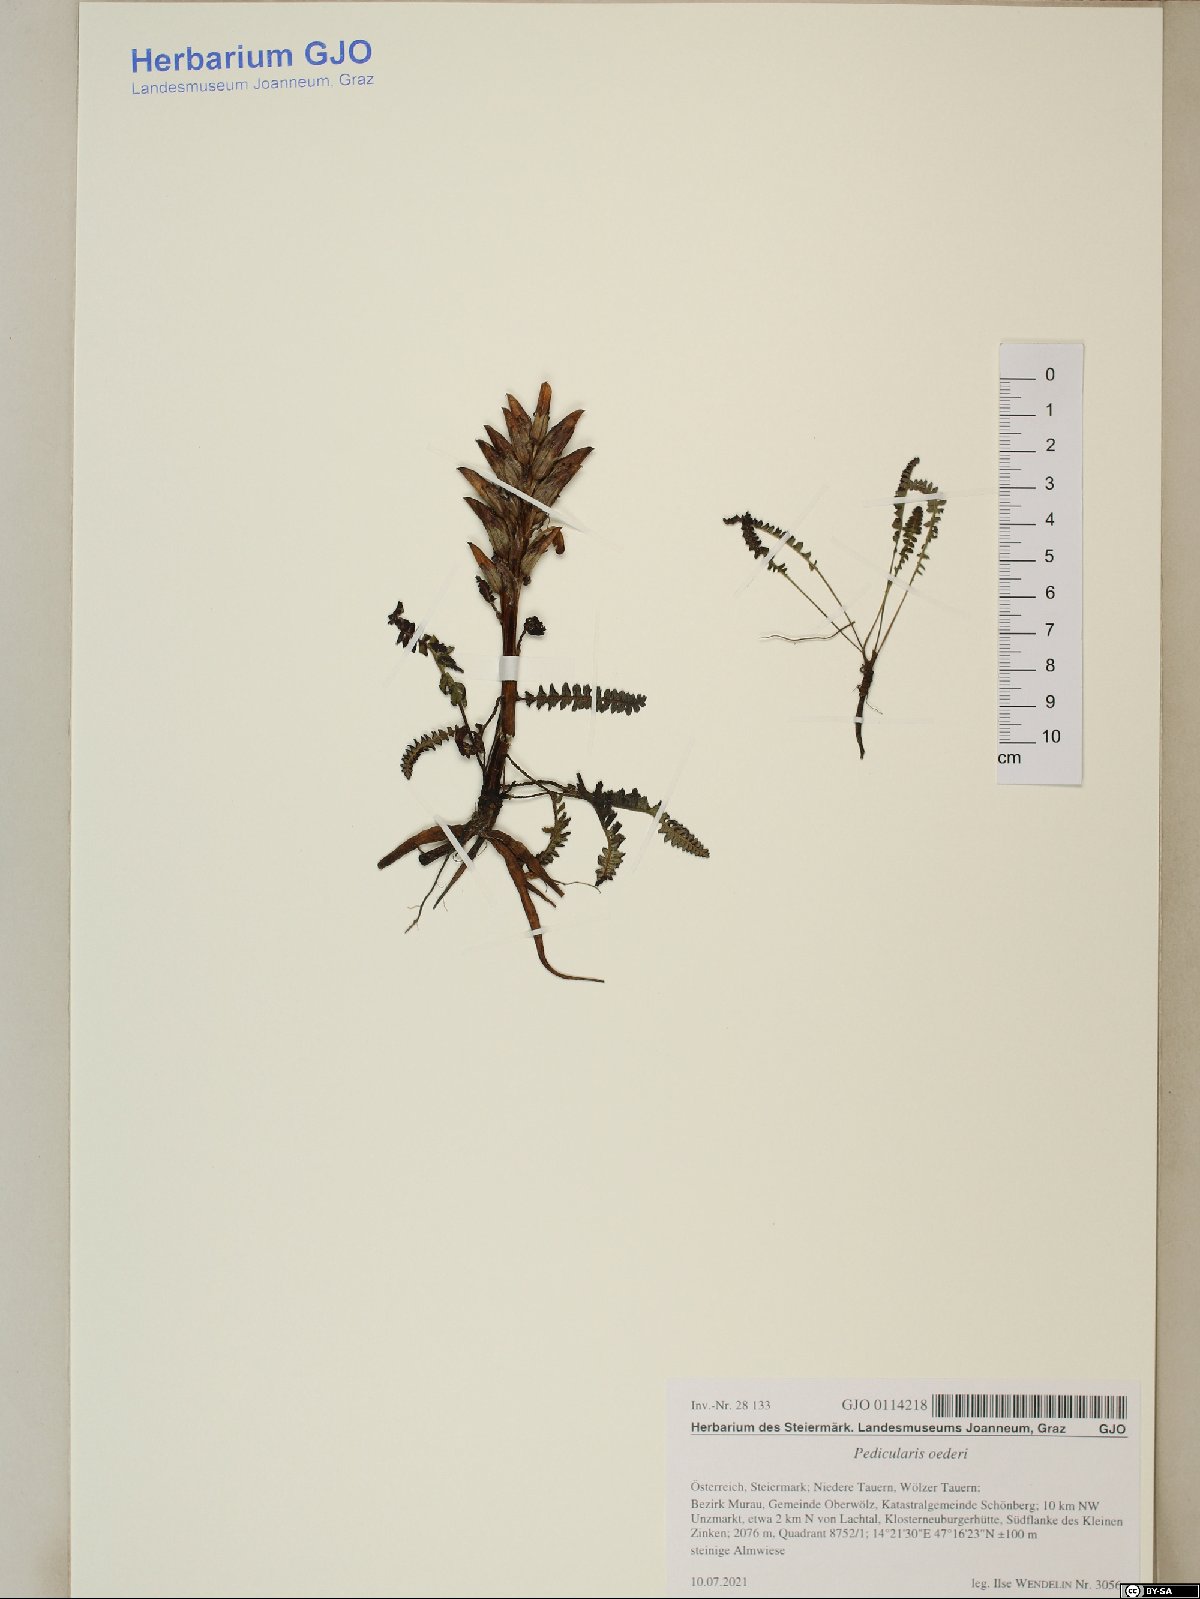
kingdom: Plantae
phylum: Tracheophyta
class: Magnoliopsida
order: Lamiales
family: Orobanchaceae
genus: Pedicularis
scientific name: Pedicularis oederi
